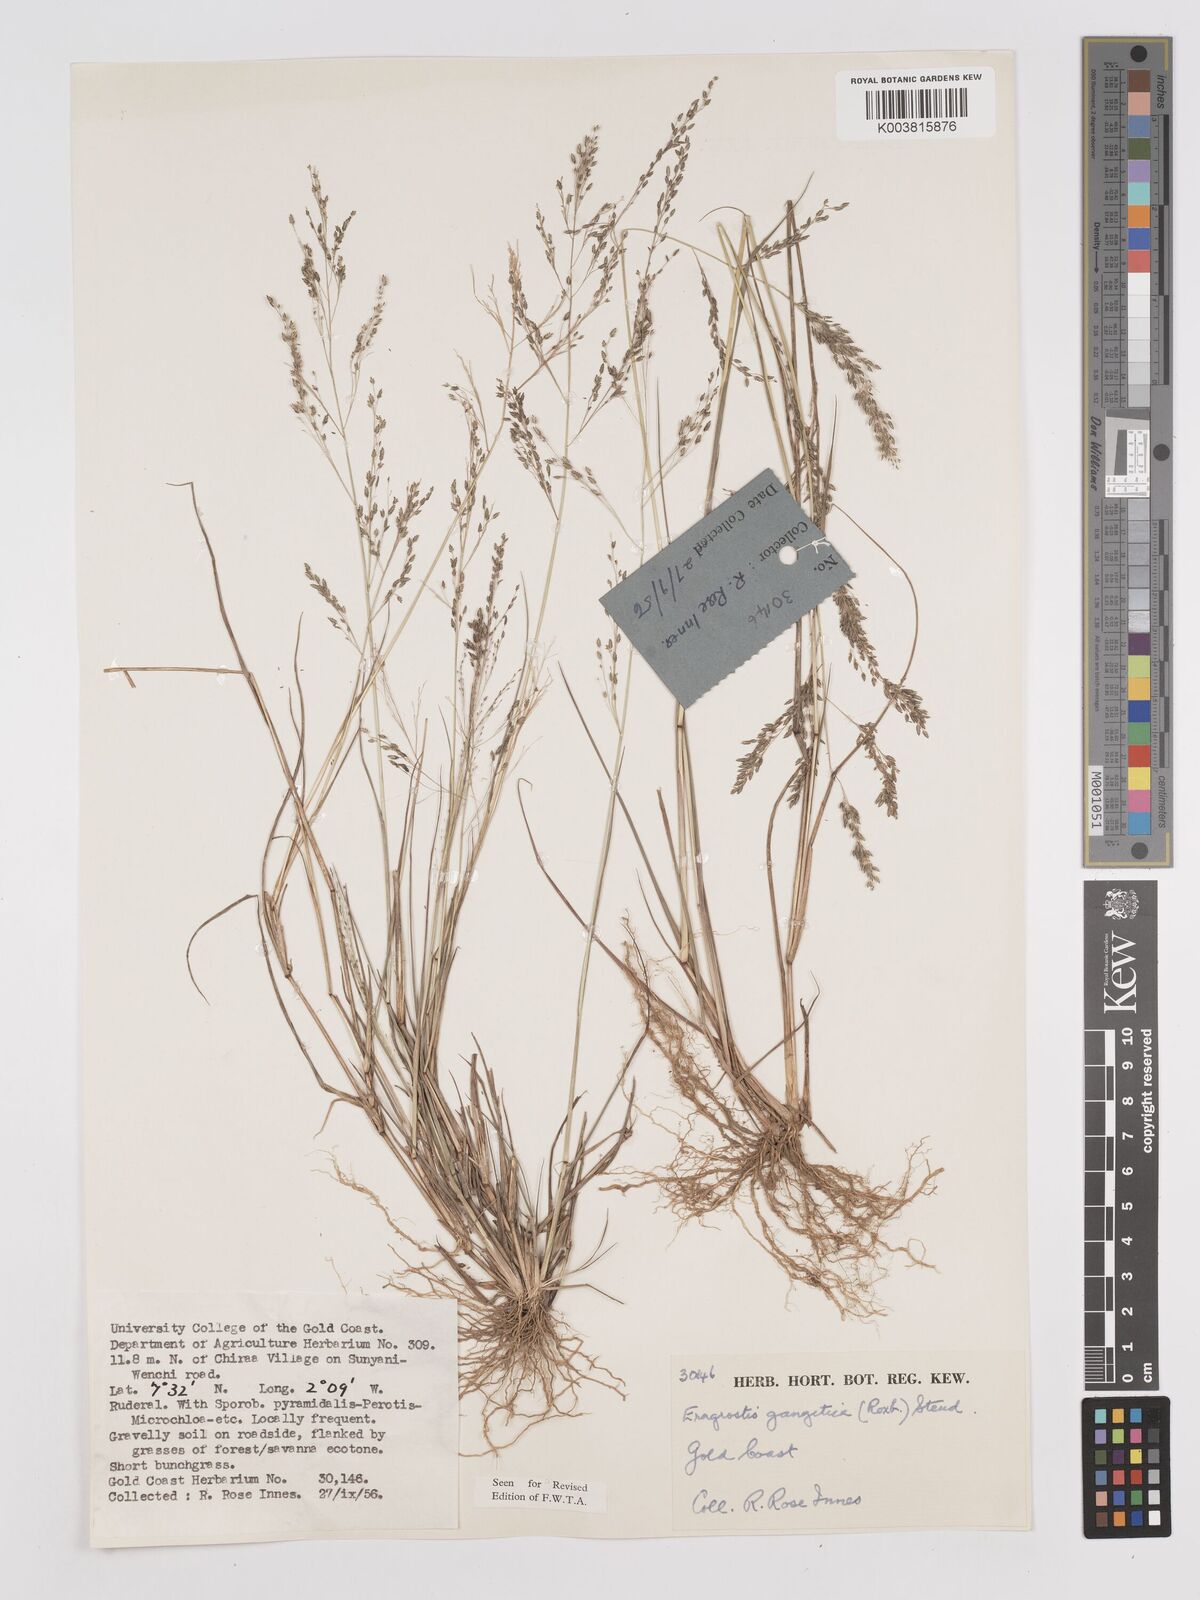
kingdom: Plantae
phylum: Tracheophyta
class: Liliopsida
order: Poales
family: Poaceae
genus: Eragrostis
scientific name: Eragrostis gangetica
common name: Slimflower lovegrass
